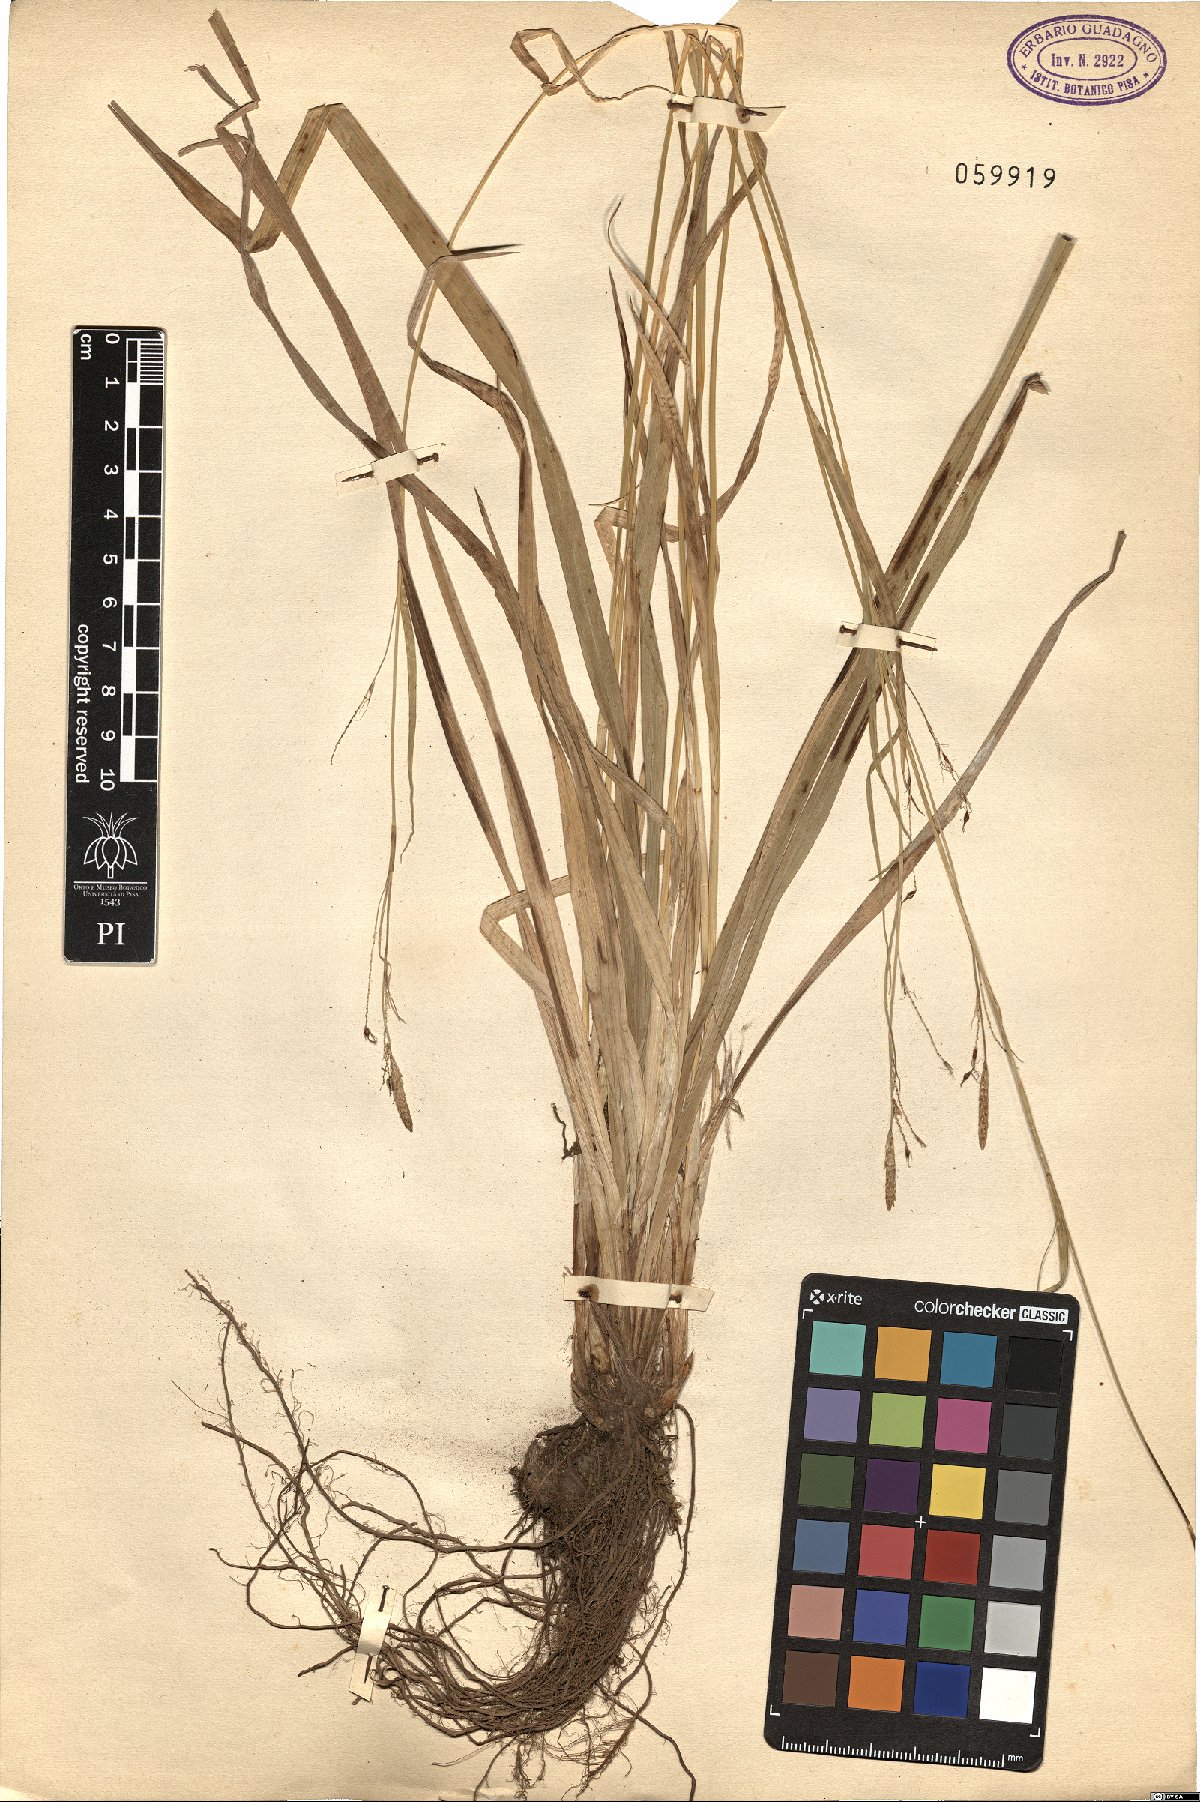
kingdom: Plantae
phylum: Tracheophyta
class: Liliopsida
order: Poales
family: Cyperaceae
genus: Carex
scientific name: Carex
